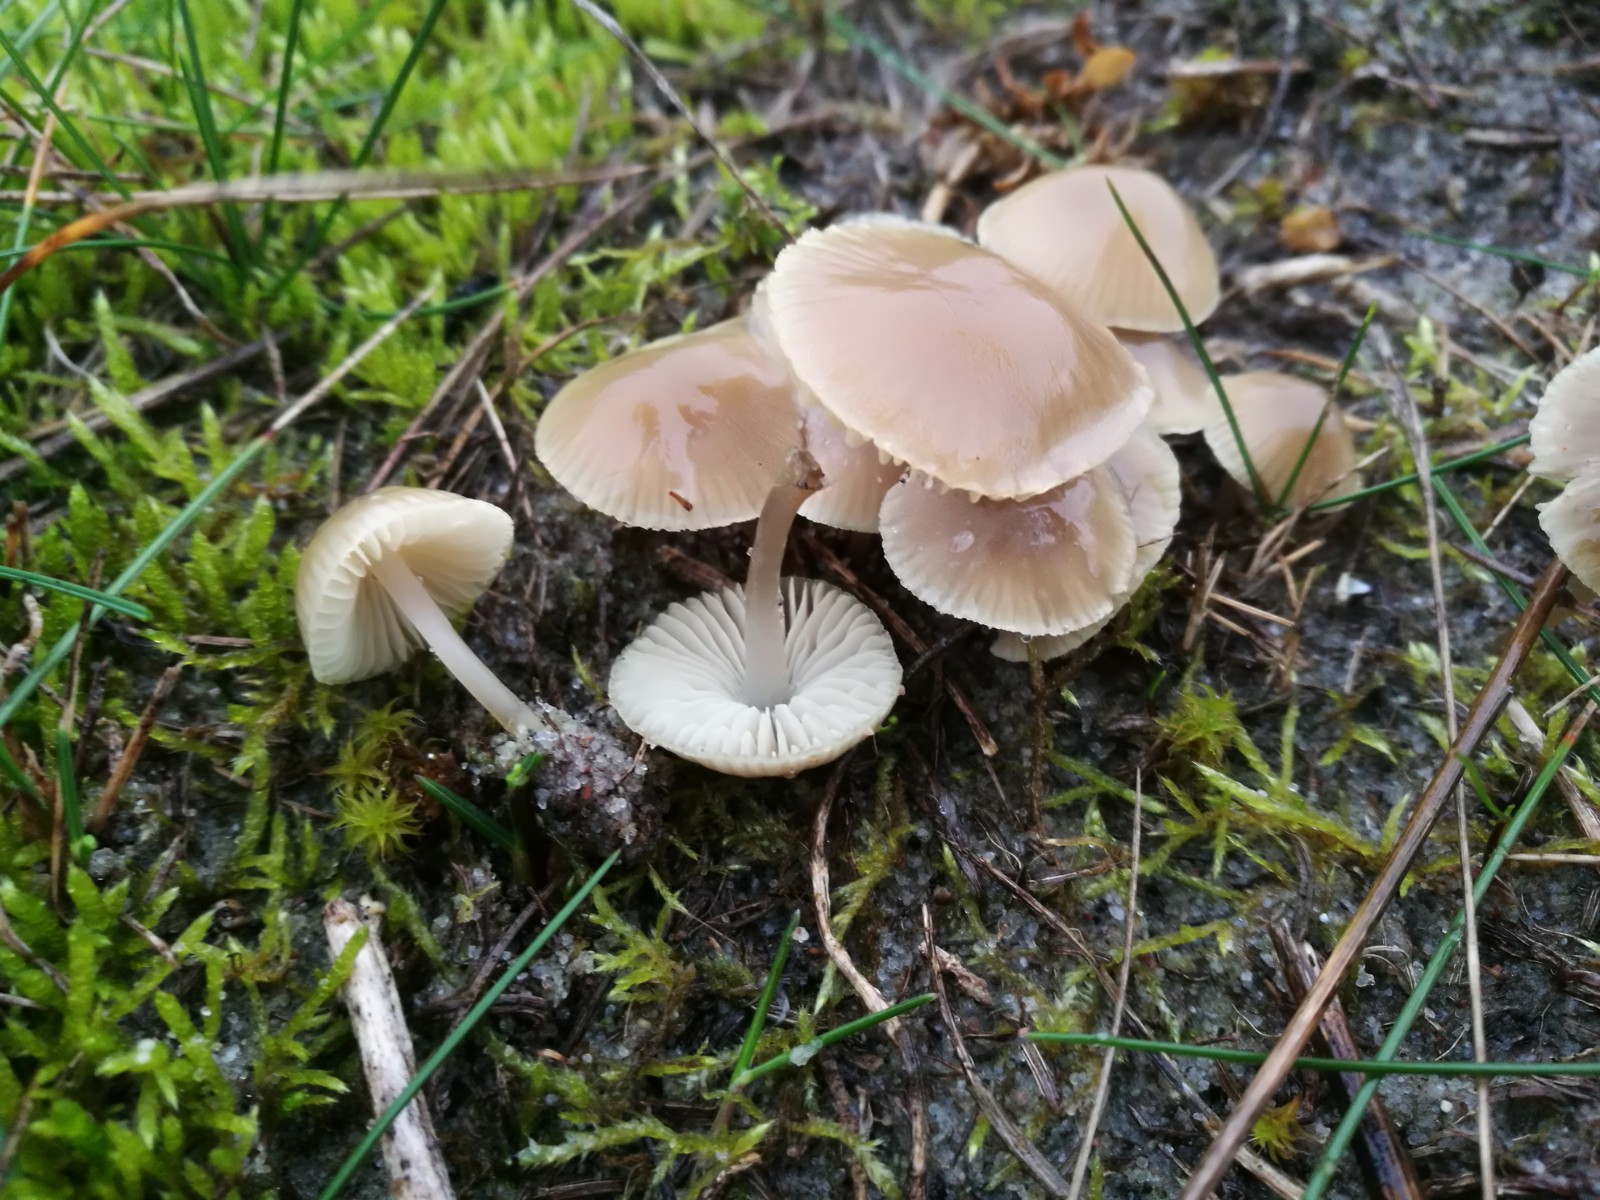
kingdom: Fungi
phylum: Basidiomycota
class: Agaricomycetes
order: Agaricales
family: Mycenaceae
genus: Mycena
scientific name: Mycena chlorantha
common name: klit-huesvamp
